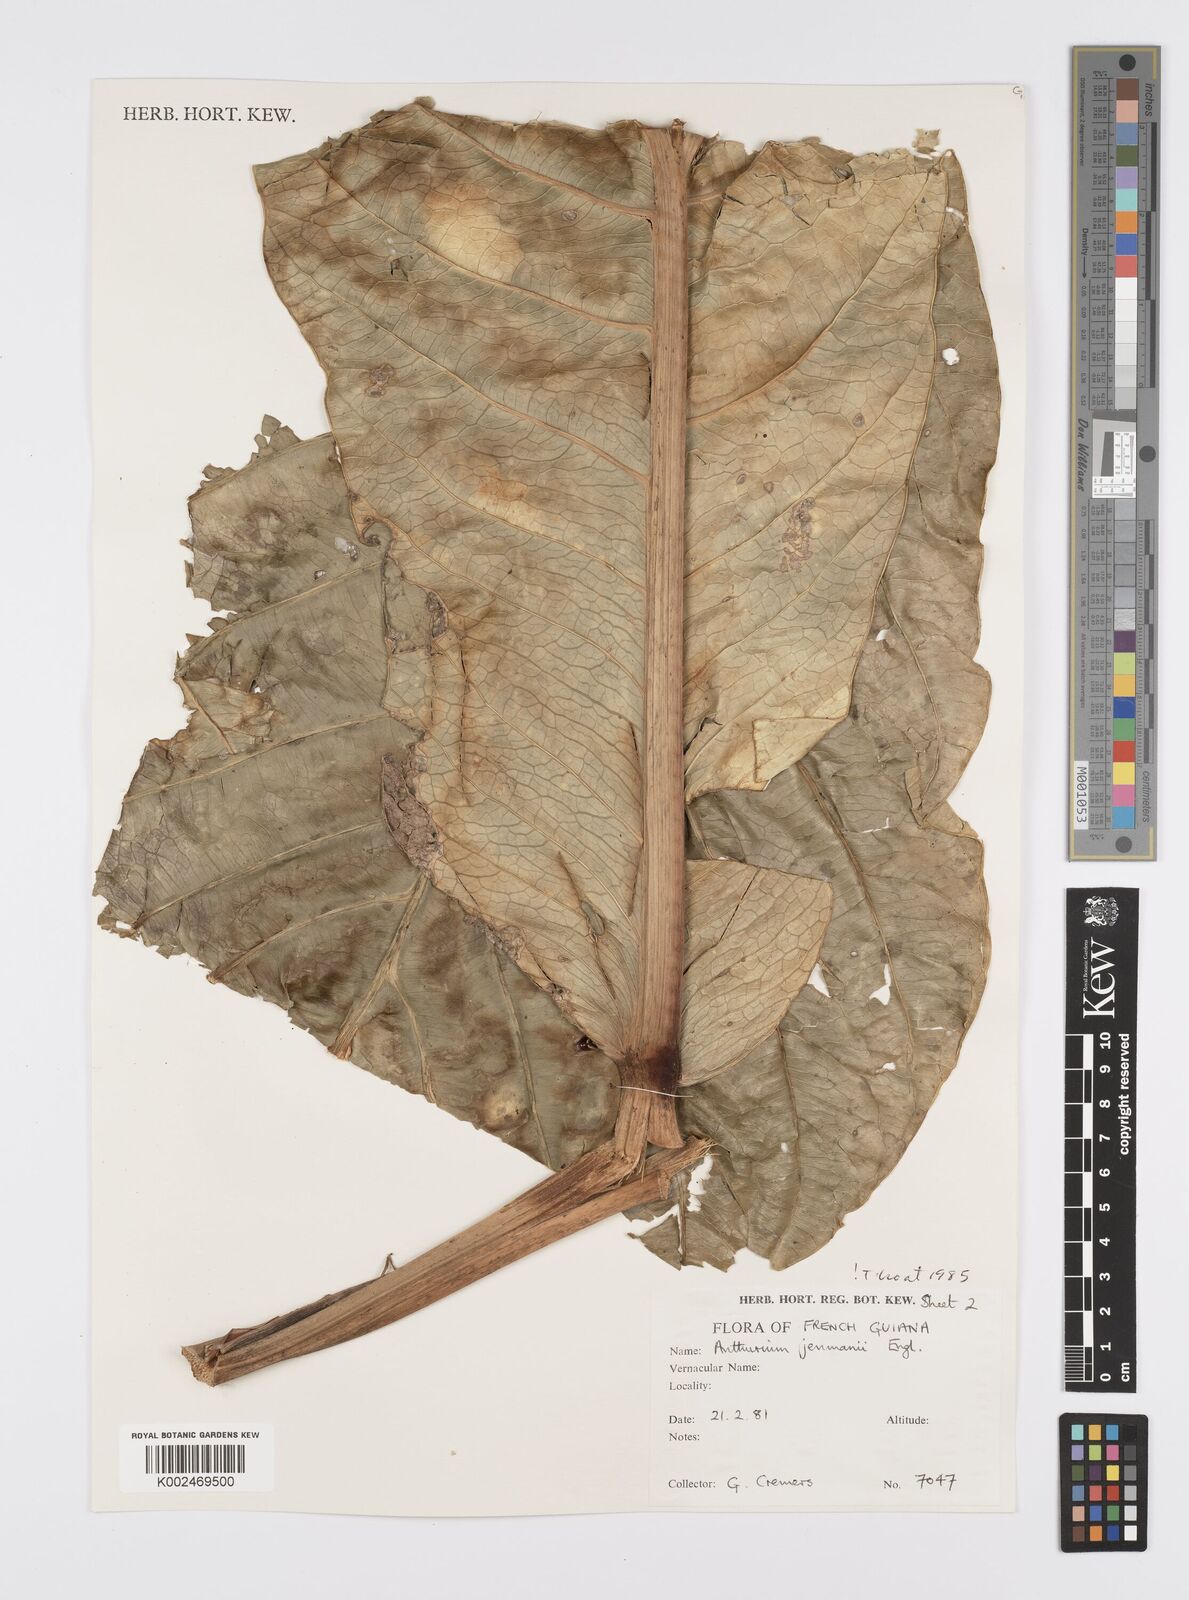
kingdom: Plantae
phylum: Tracheophyta
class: Liliopsida
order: Alismatales
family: Araceae
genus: Anthurium
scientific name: Anthurium jenmanii
